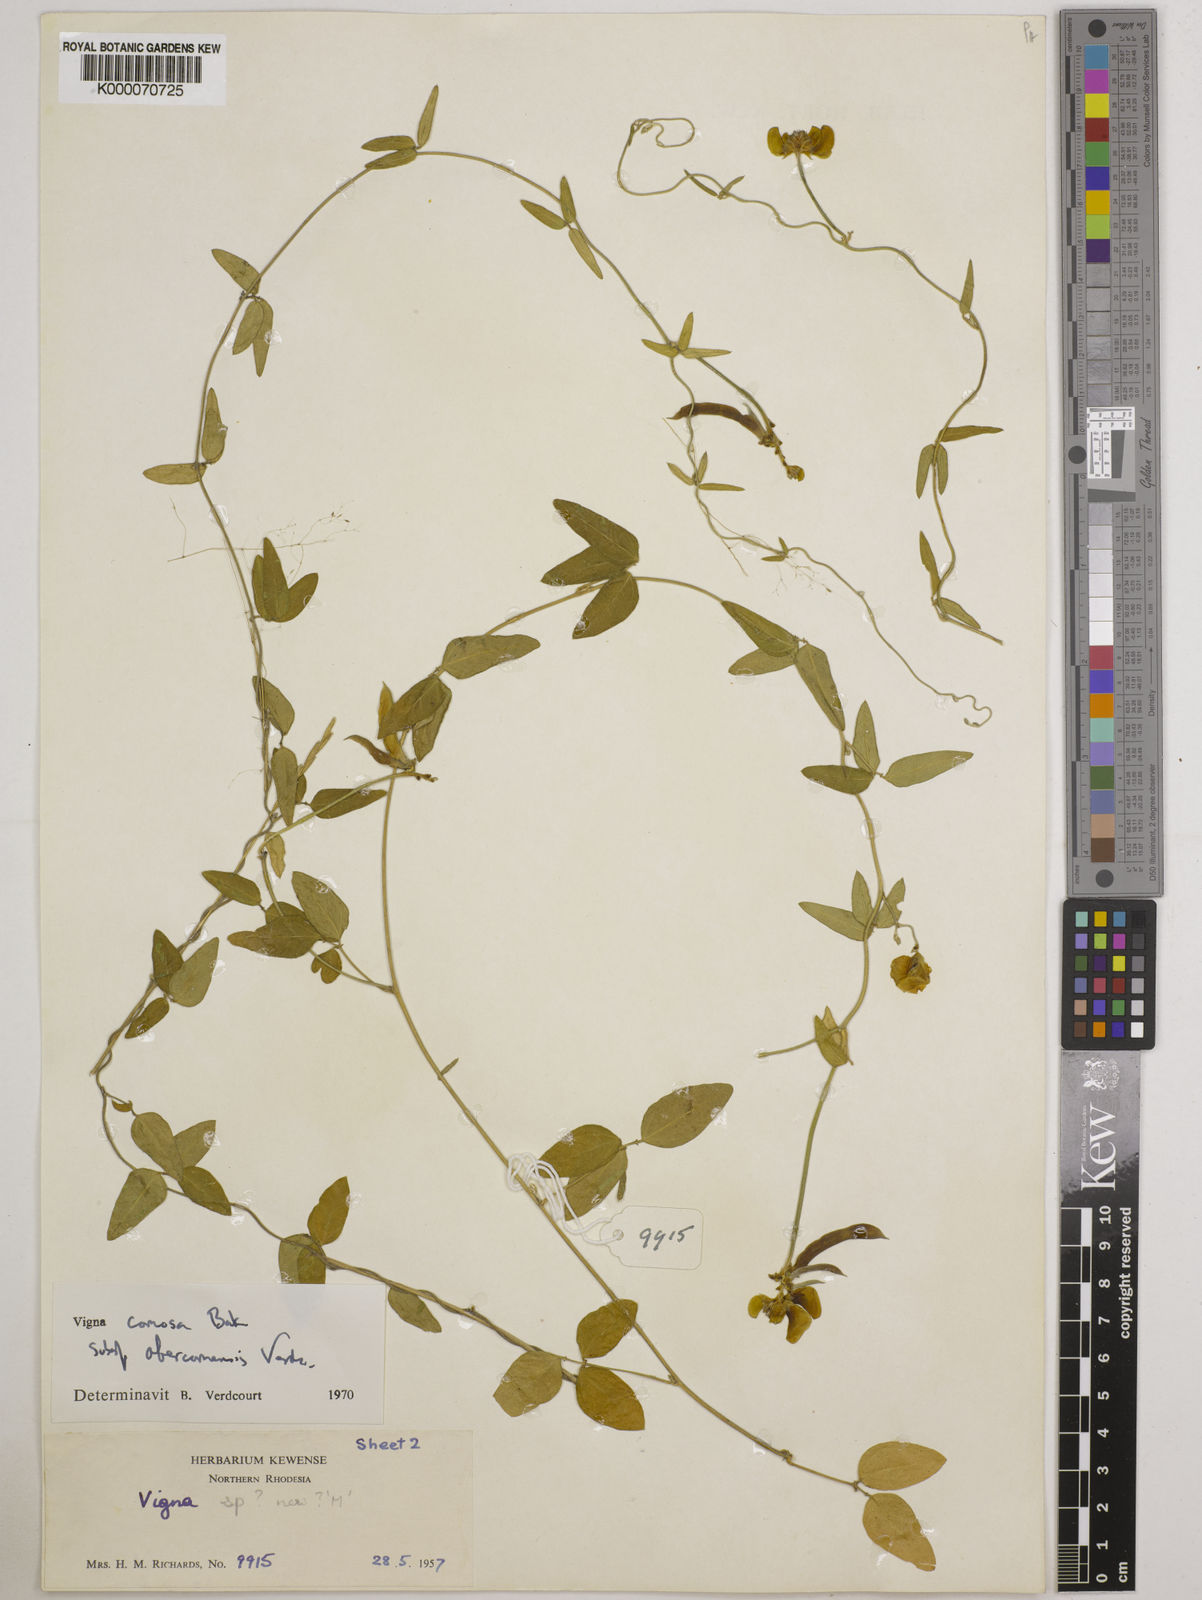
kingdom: Plantae
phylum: Tracheophyta
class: Magnoliopsida
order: Fabales
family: Fabaceae
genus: Vigna
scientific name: Vigna comosa
